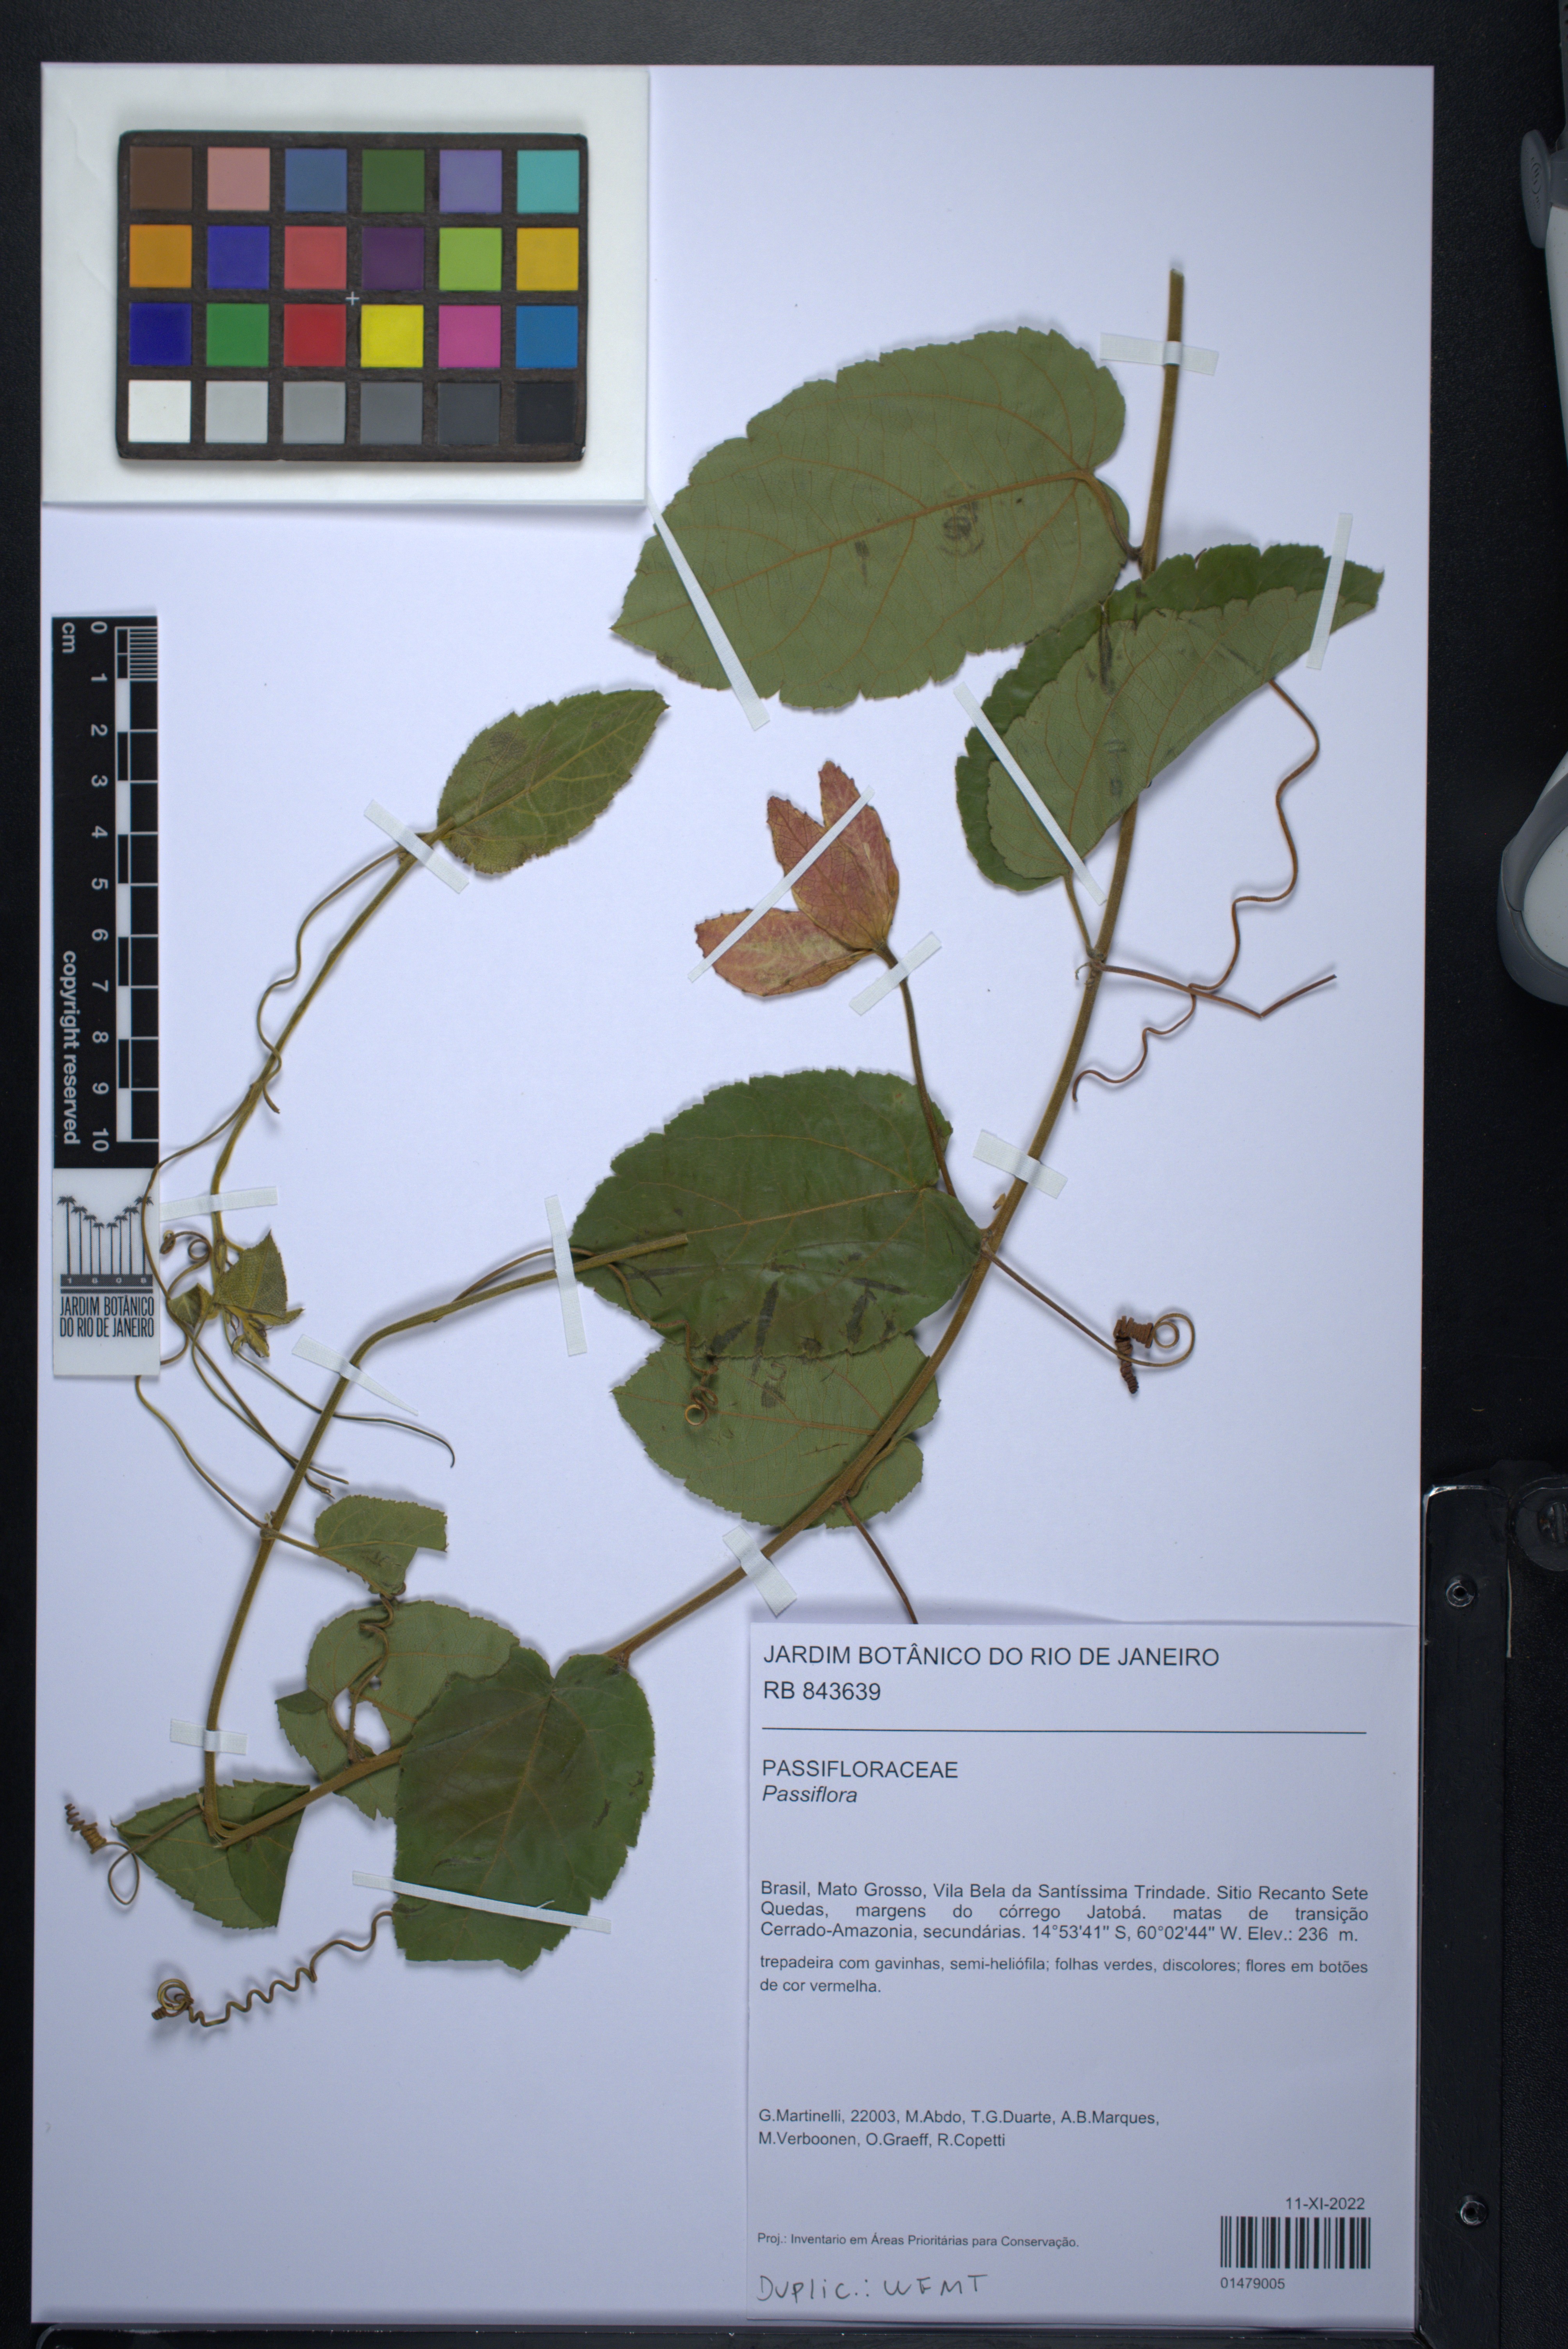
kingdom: Plantae
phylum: Tracheophyta
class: Magnoliopsida
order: Malpighiales
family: Passifloraceae
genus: Passiflora
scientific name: Passiflora
